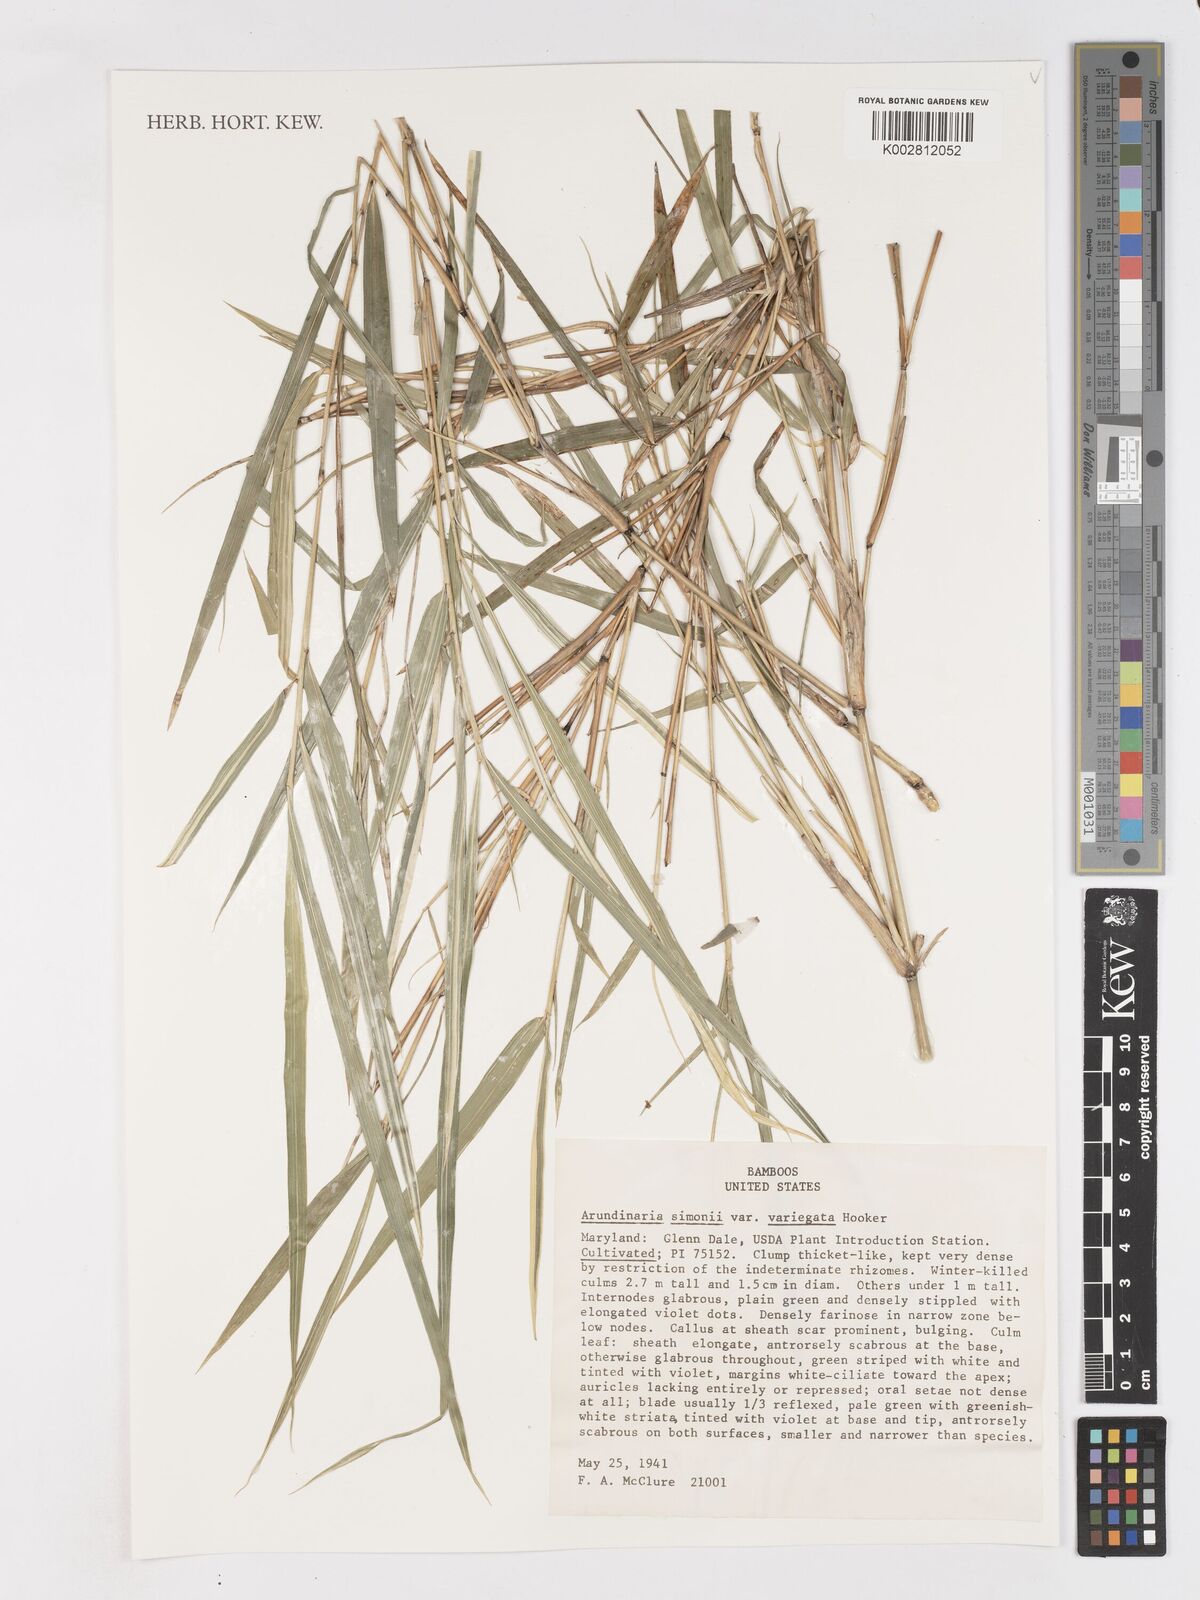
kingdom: Plantae
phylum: Tracheophyta
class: Liliopsida
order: Poales
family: Poaceae
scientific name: Poaceae
